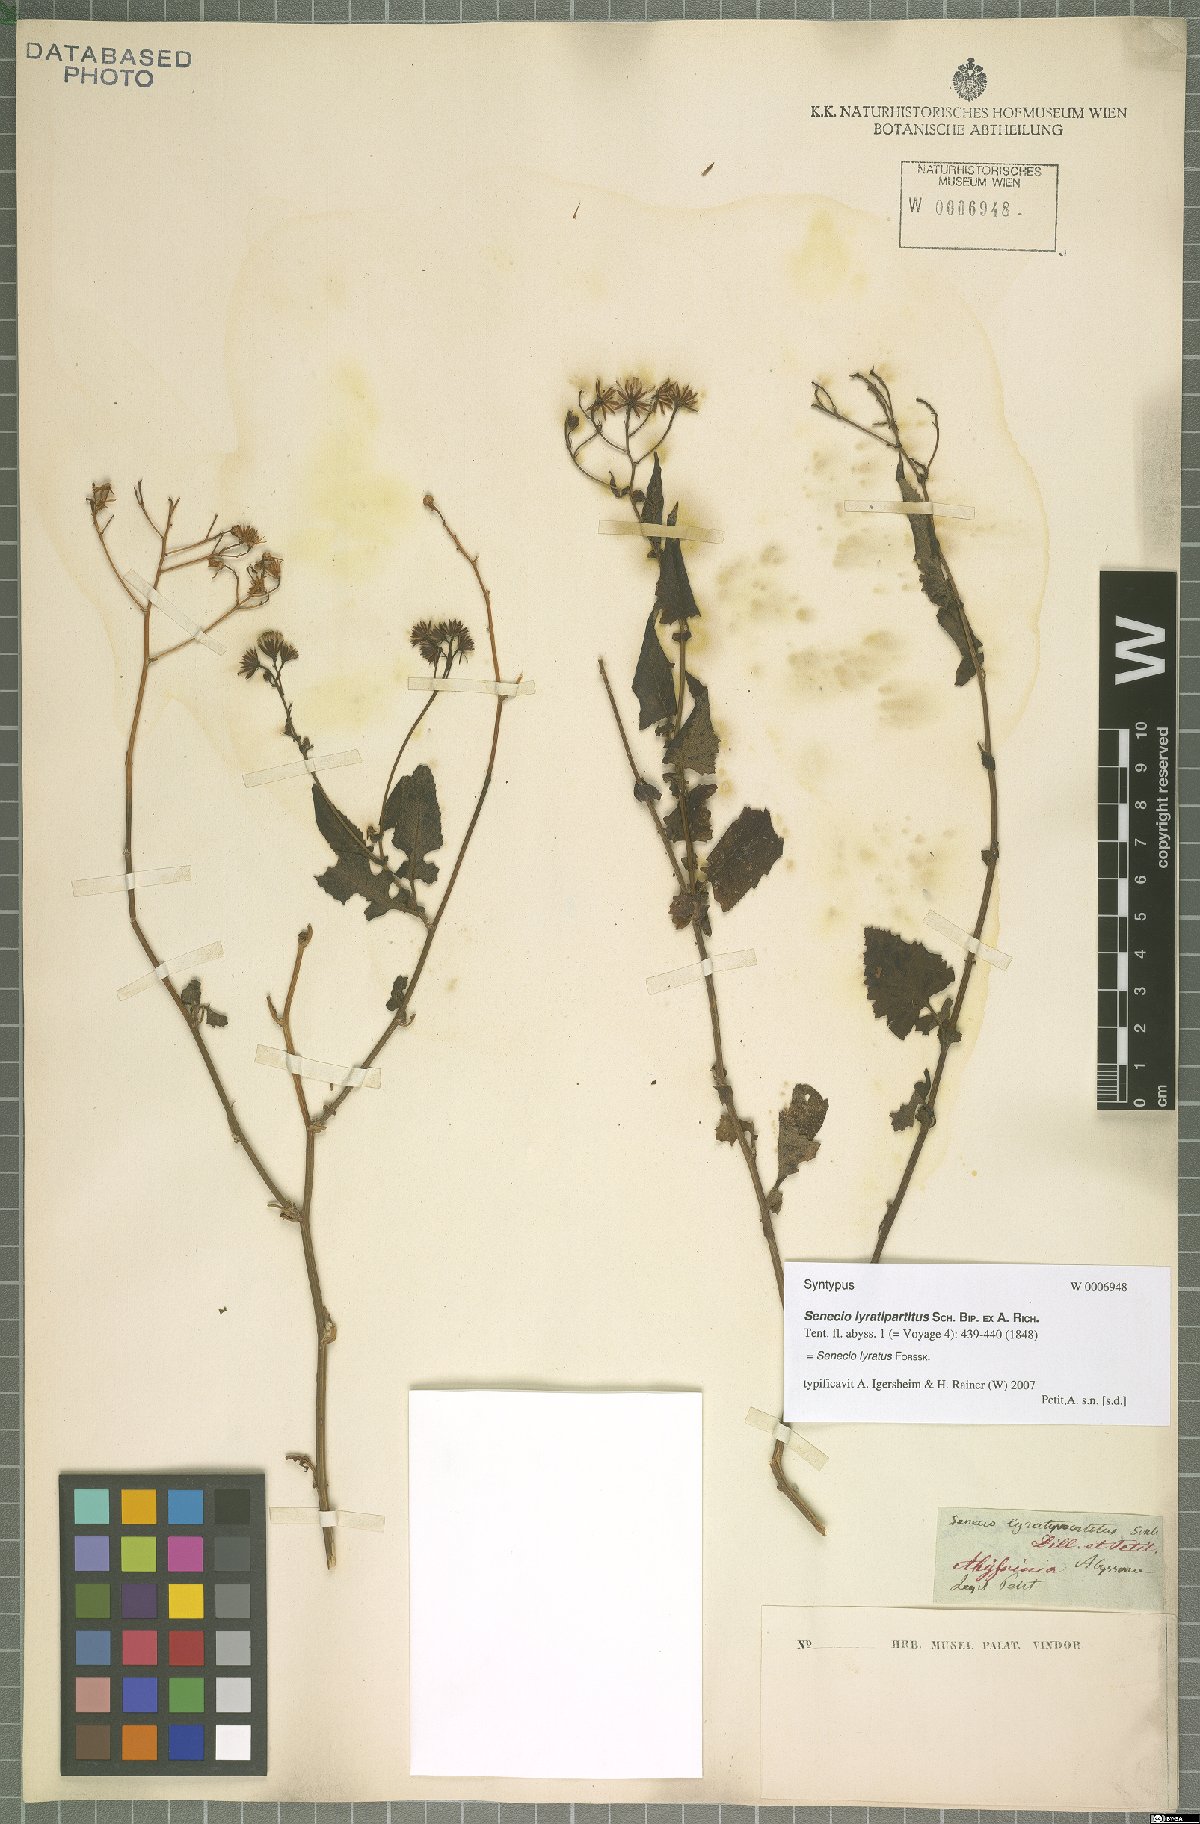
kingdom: Plantae
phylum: Tracheophyta
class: Magnoliopsida
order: Asterales
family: Asteraceae
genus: Senecio
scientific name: Senecio lyratus
